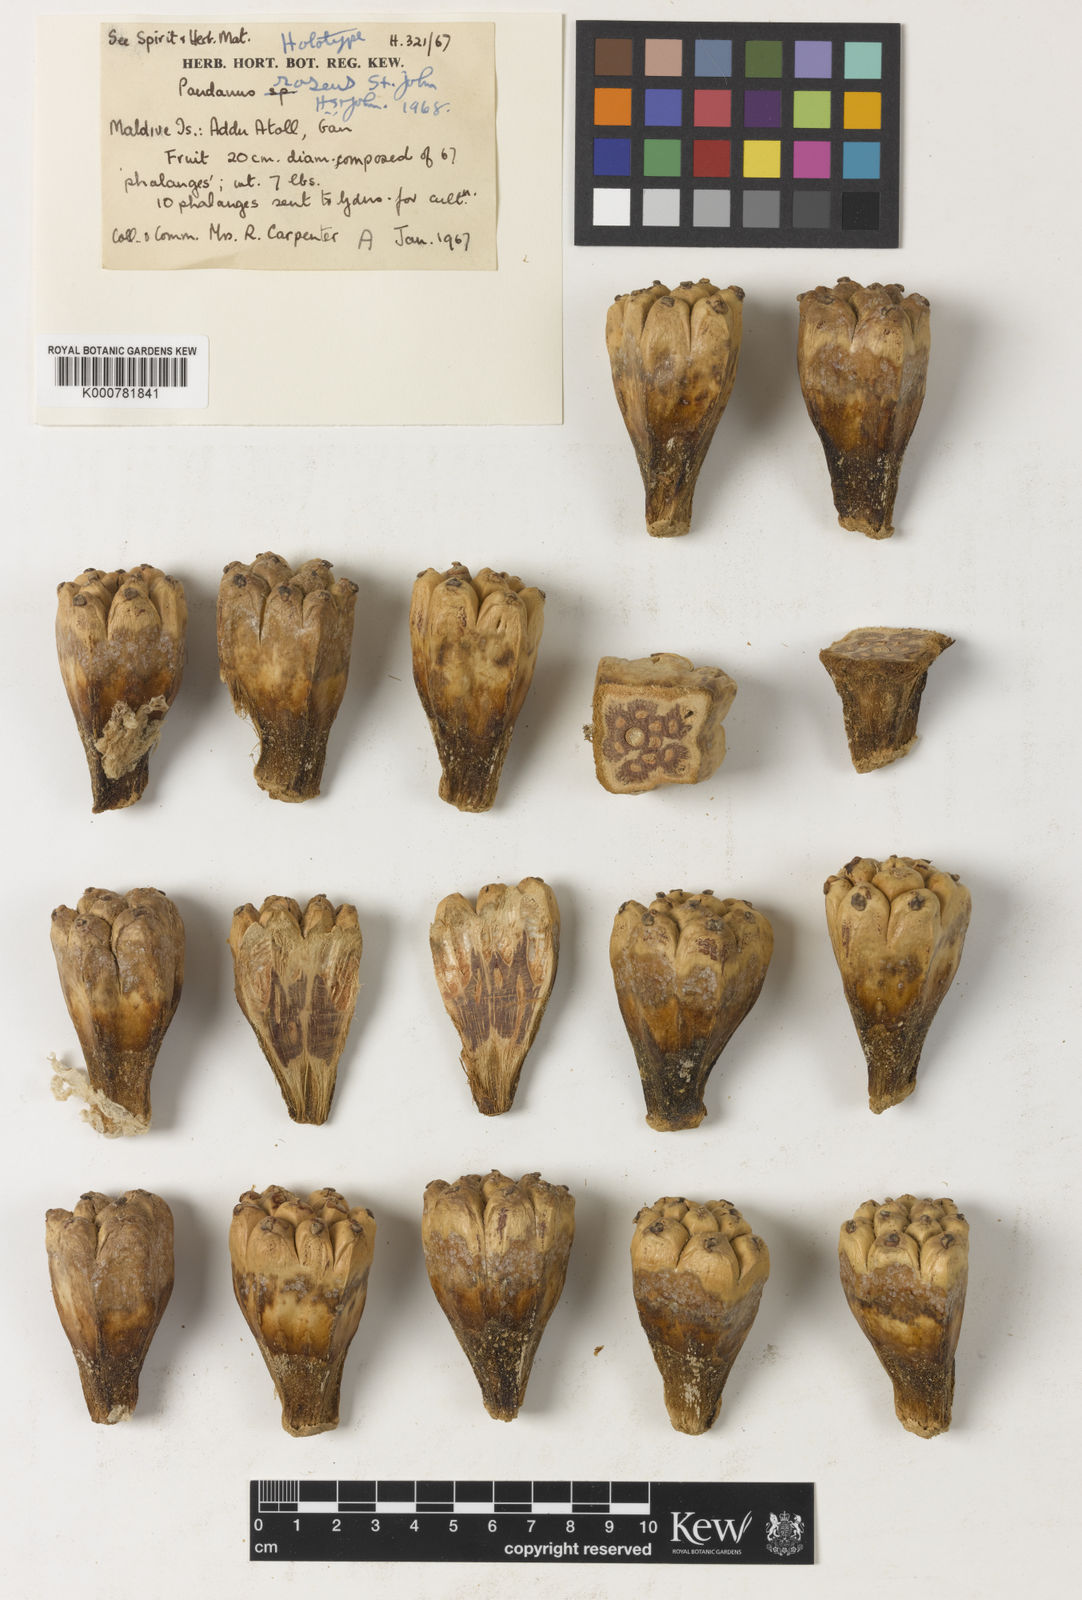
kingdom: Plantae
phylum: Tracheophyta
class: Liliopsida
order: Pandanales
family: Pandanaceae
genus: Pandanus
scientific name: Pandanus
